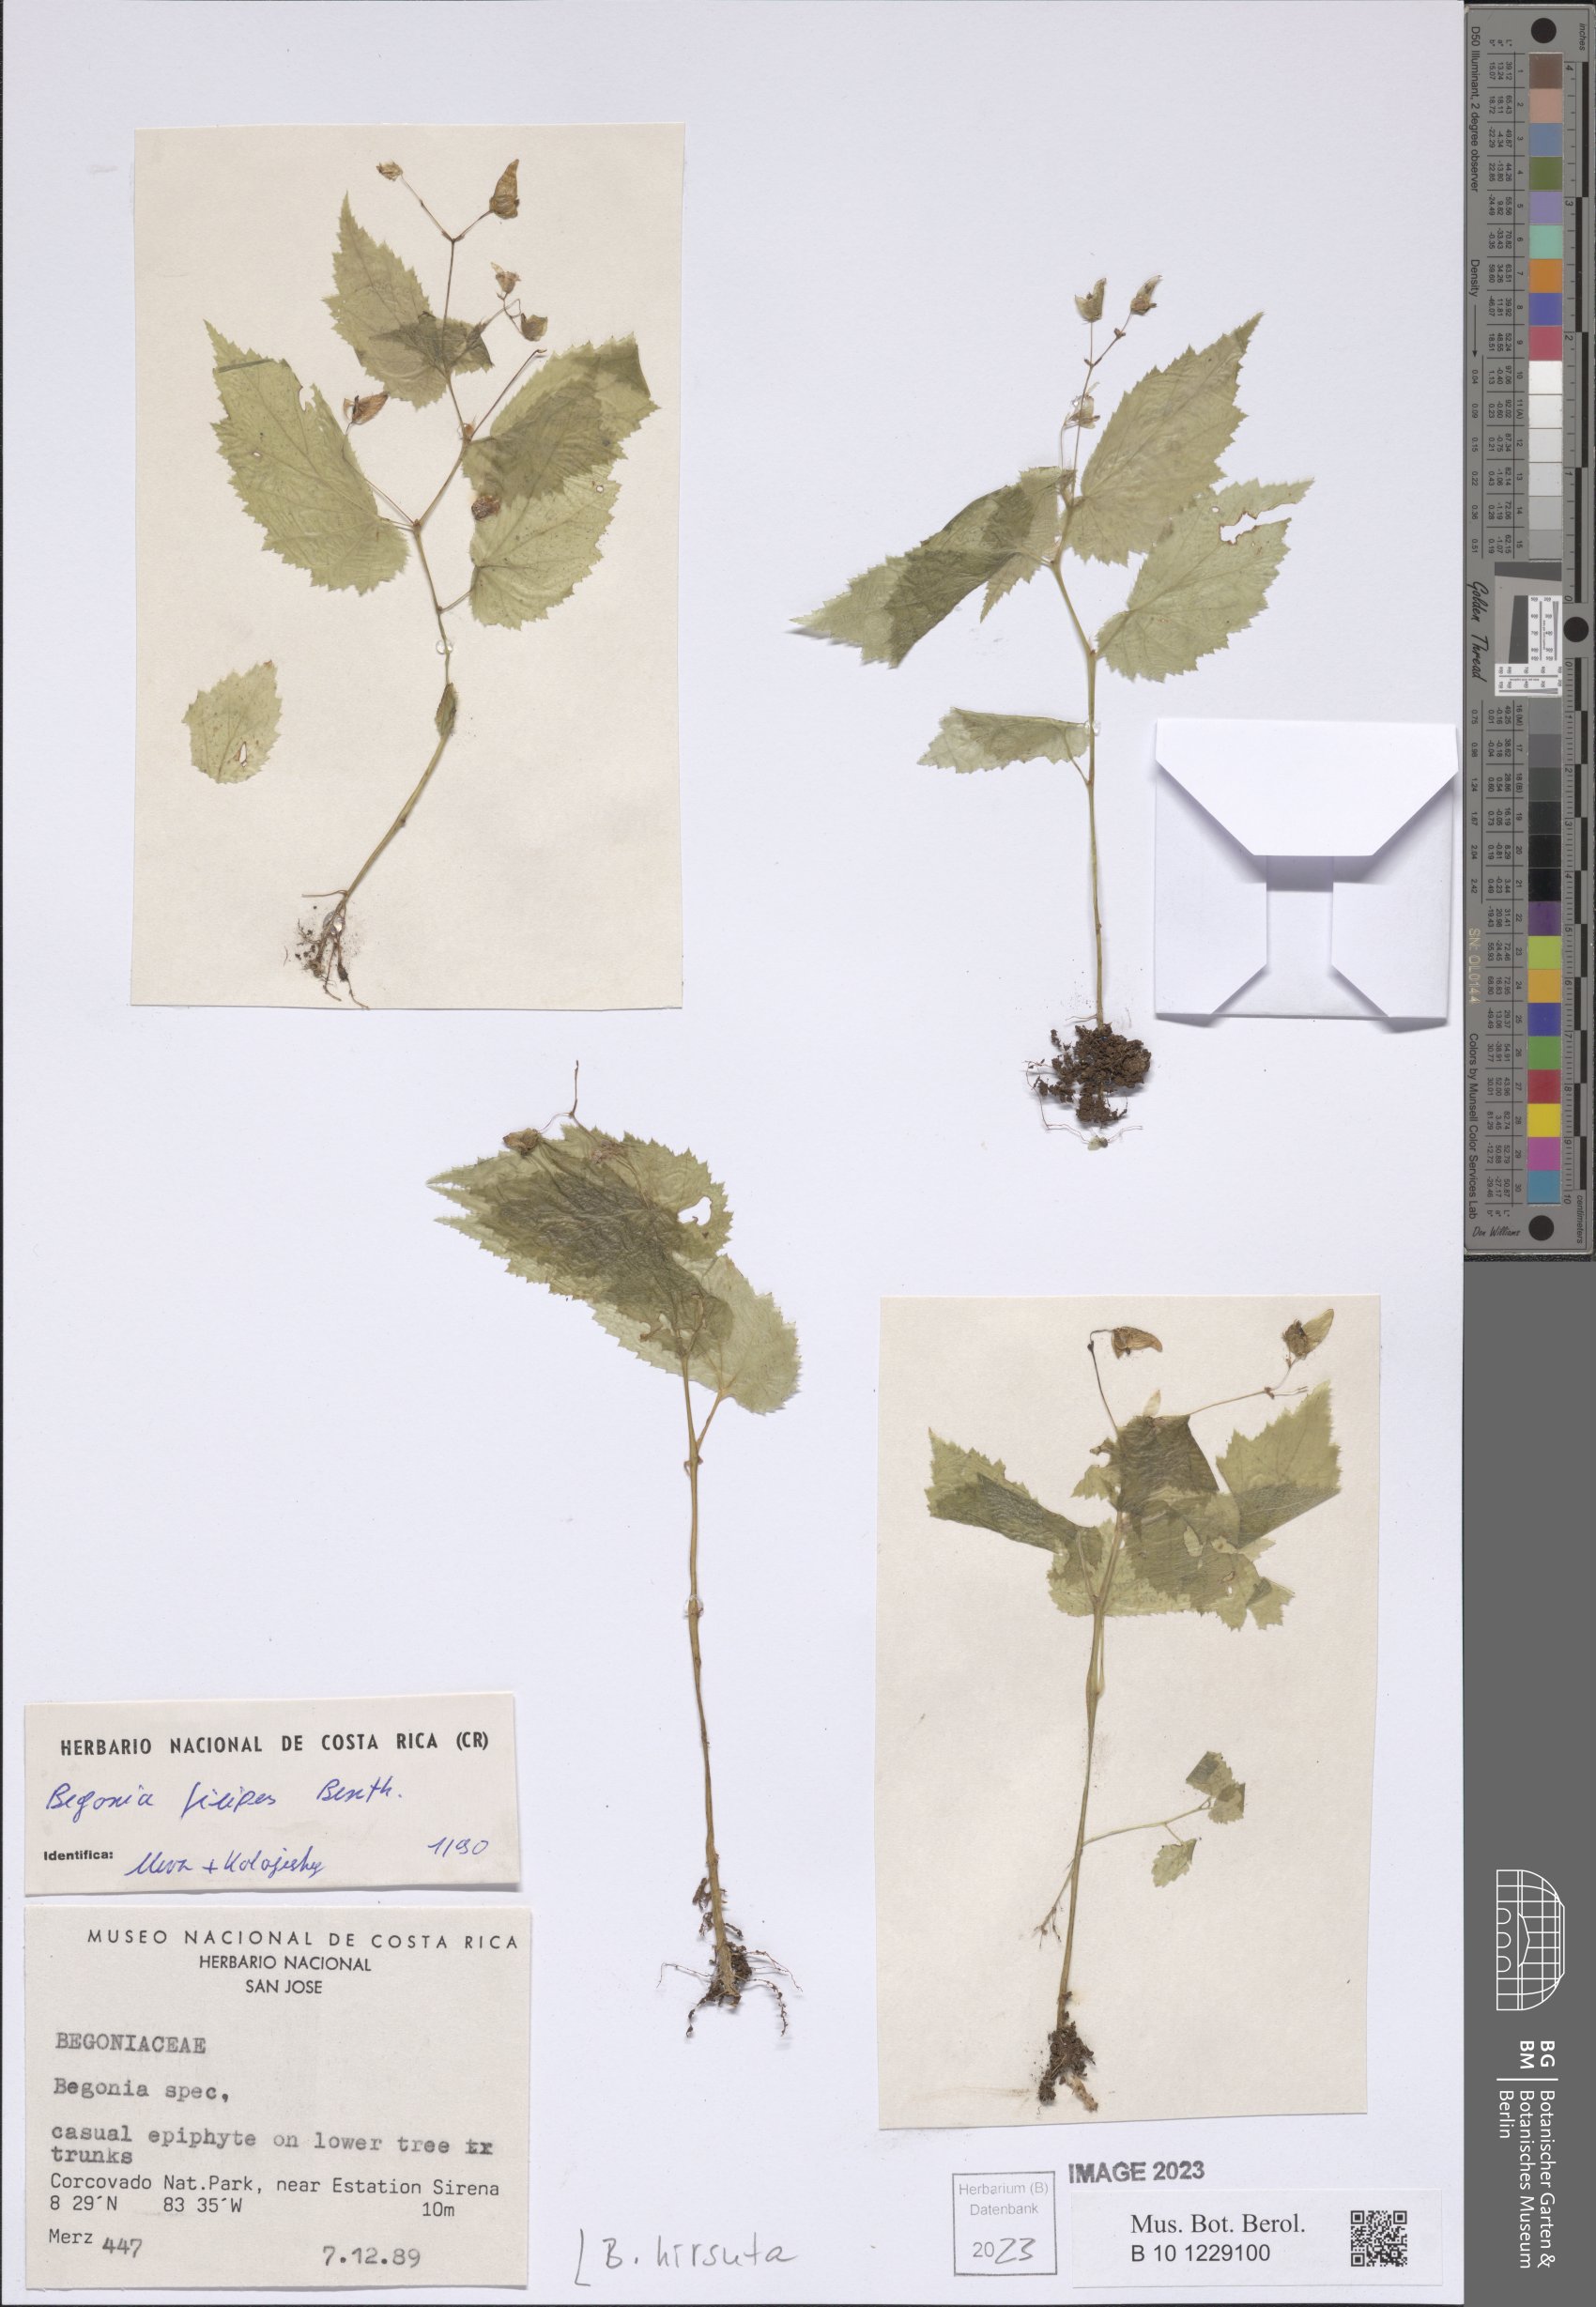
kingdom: Plantae
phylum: Tracheophyta
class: Magnoliopsida
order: Cucurbitales
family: Begoniaceae
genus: Begonia
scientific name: Begonia hirsuta
